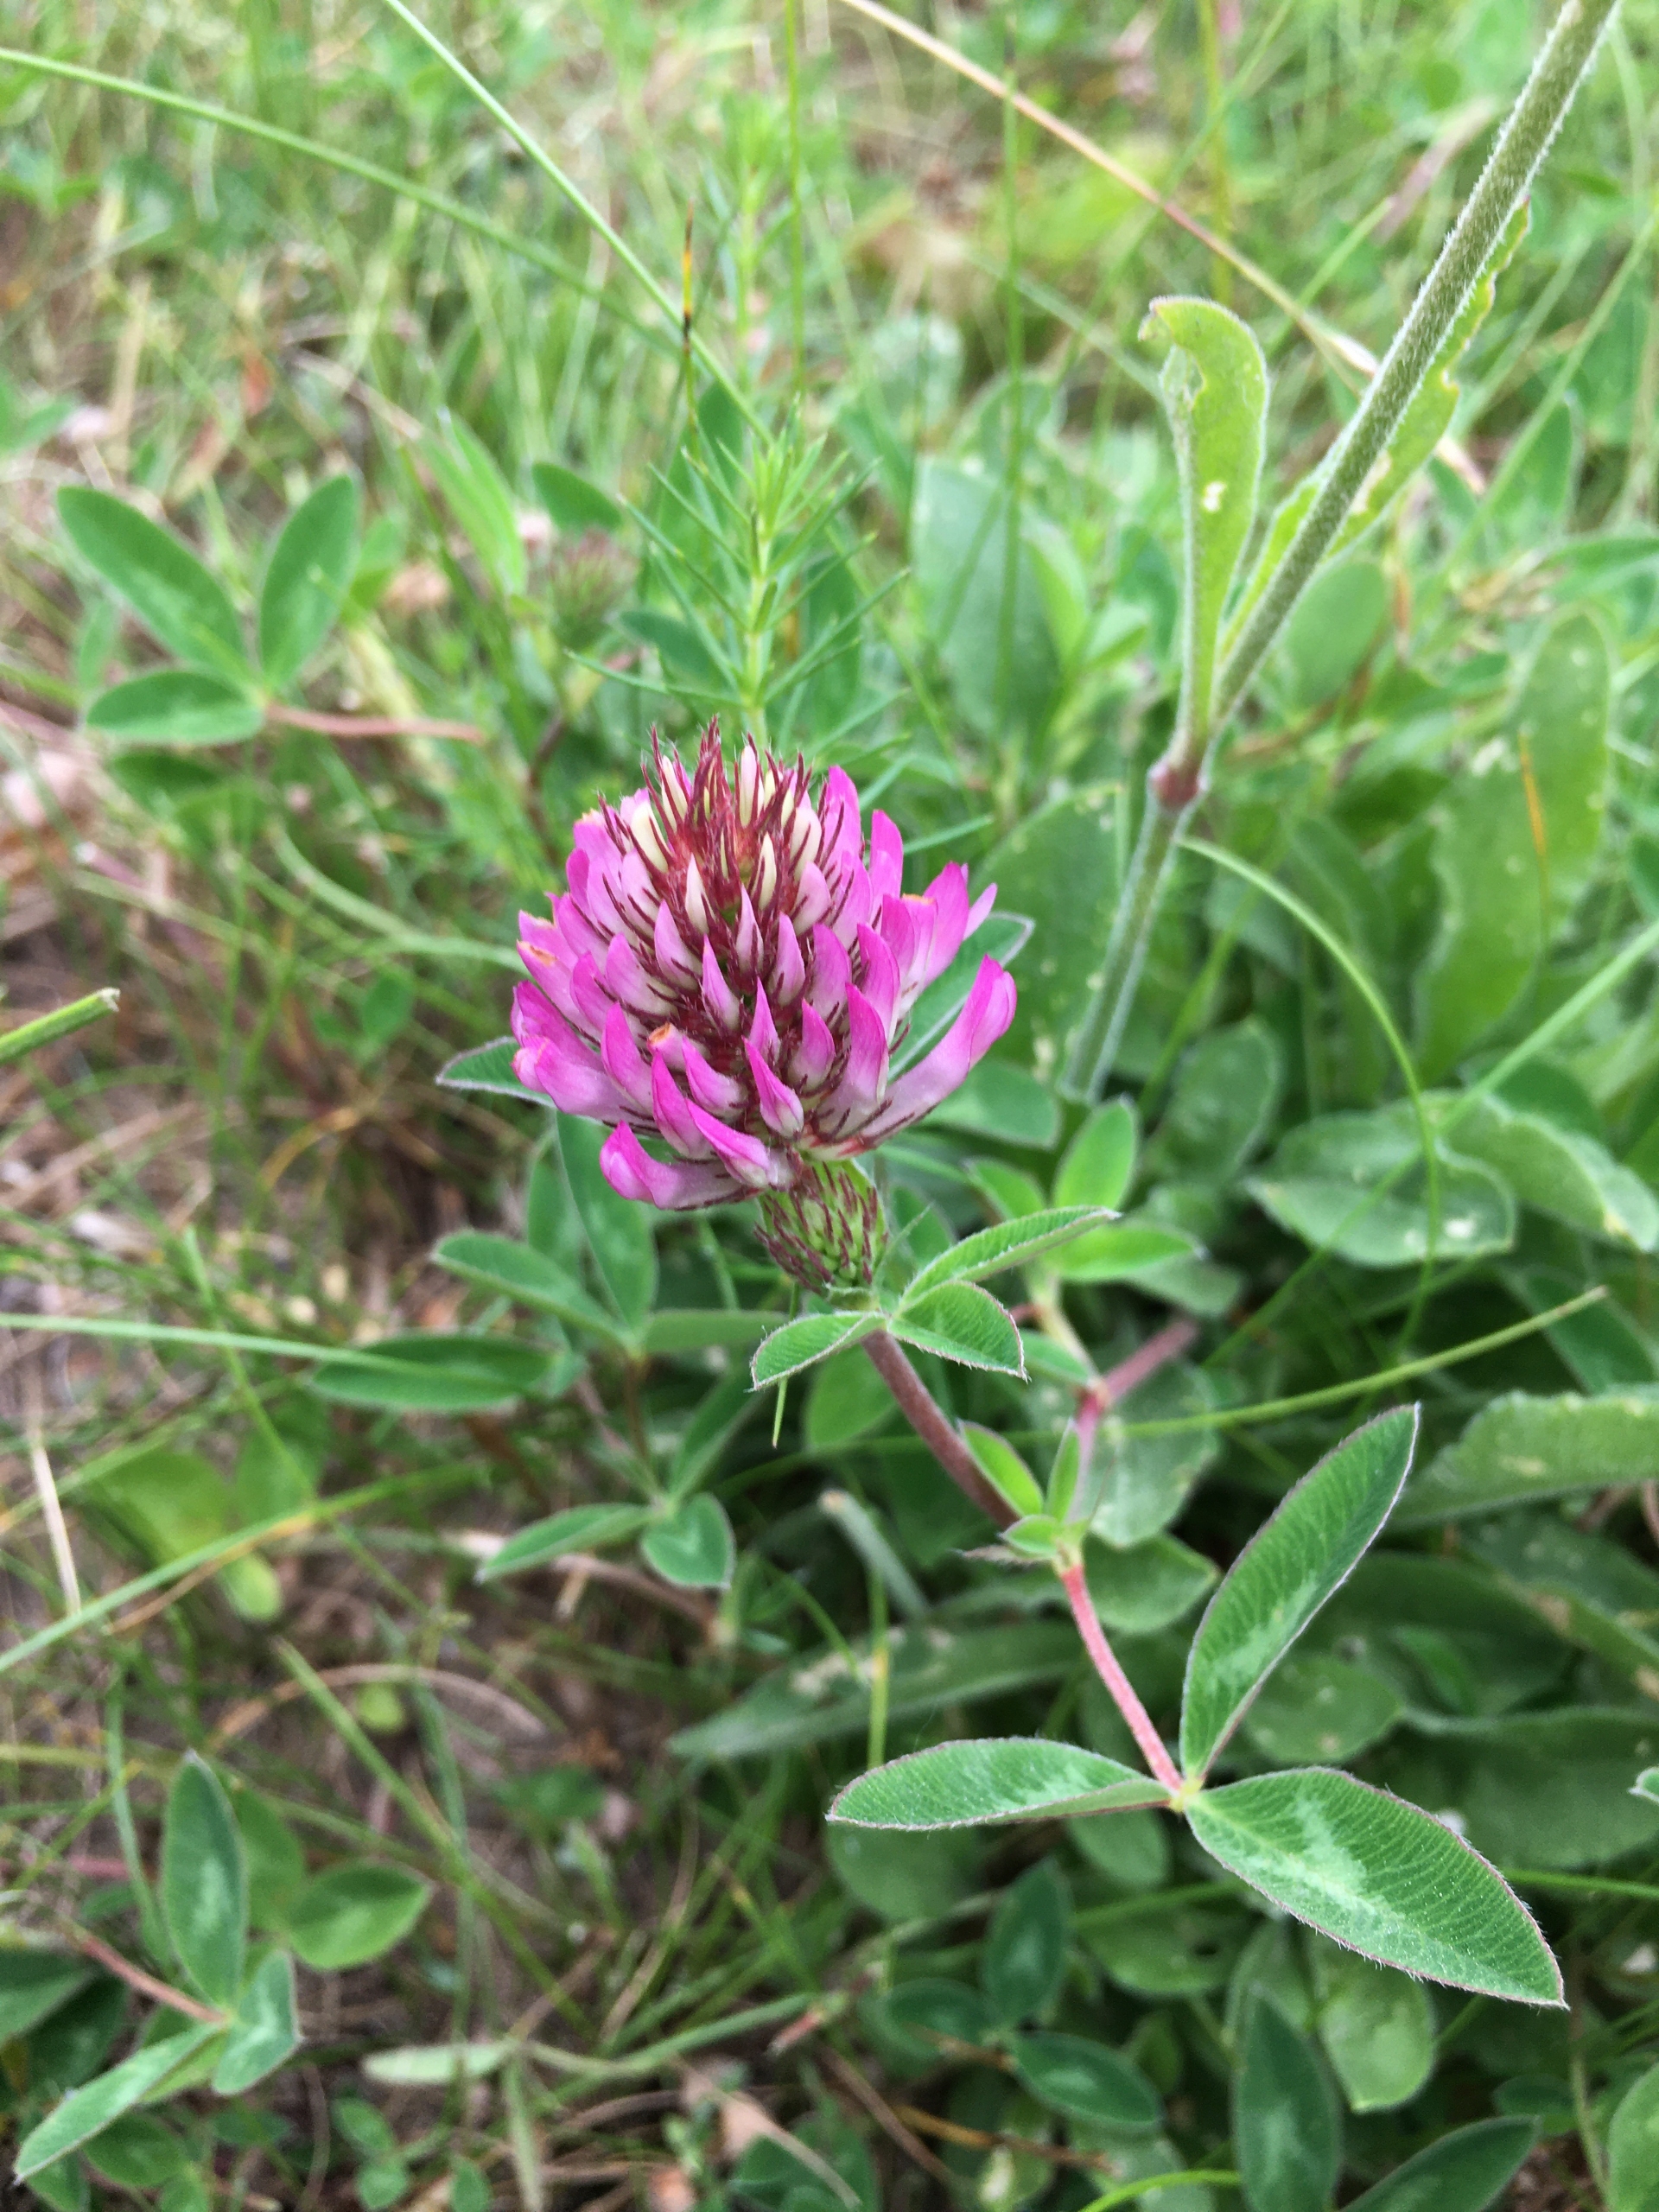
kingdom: Plantae
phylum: Tracheophyta
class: Magnoliopsida
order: Fabales
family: Fabaceae
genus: Trifolium
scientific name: Trifolium medium
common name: Bugtet kløver
